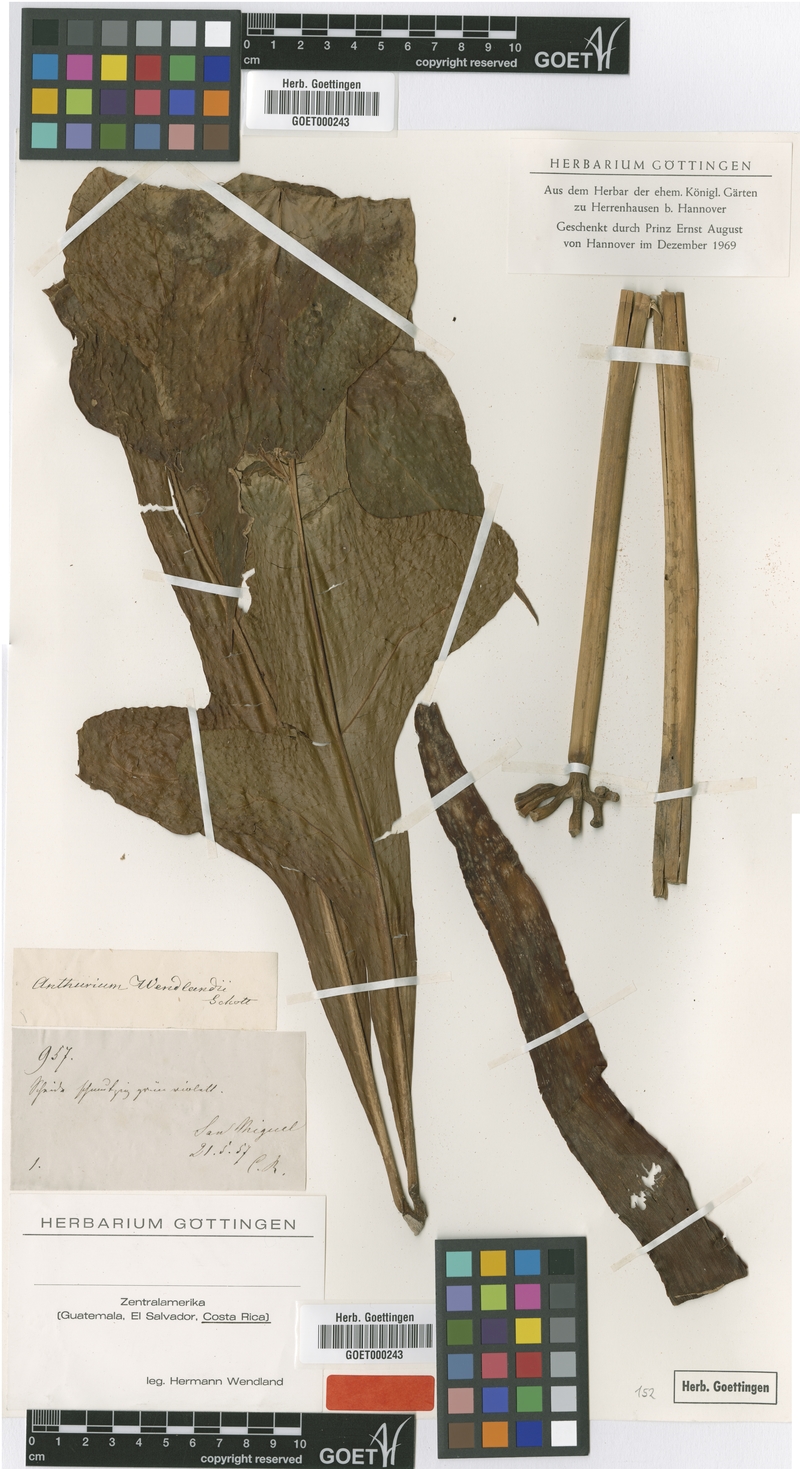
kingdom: Plantae
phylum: Tracheophyta
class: Liliopsida
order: Alismatales
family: Araceae
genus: Anthurium
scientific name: Anthurium clavigerum
